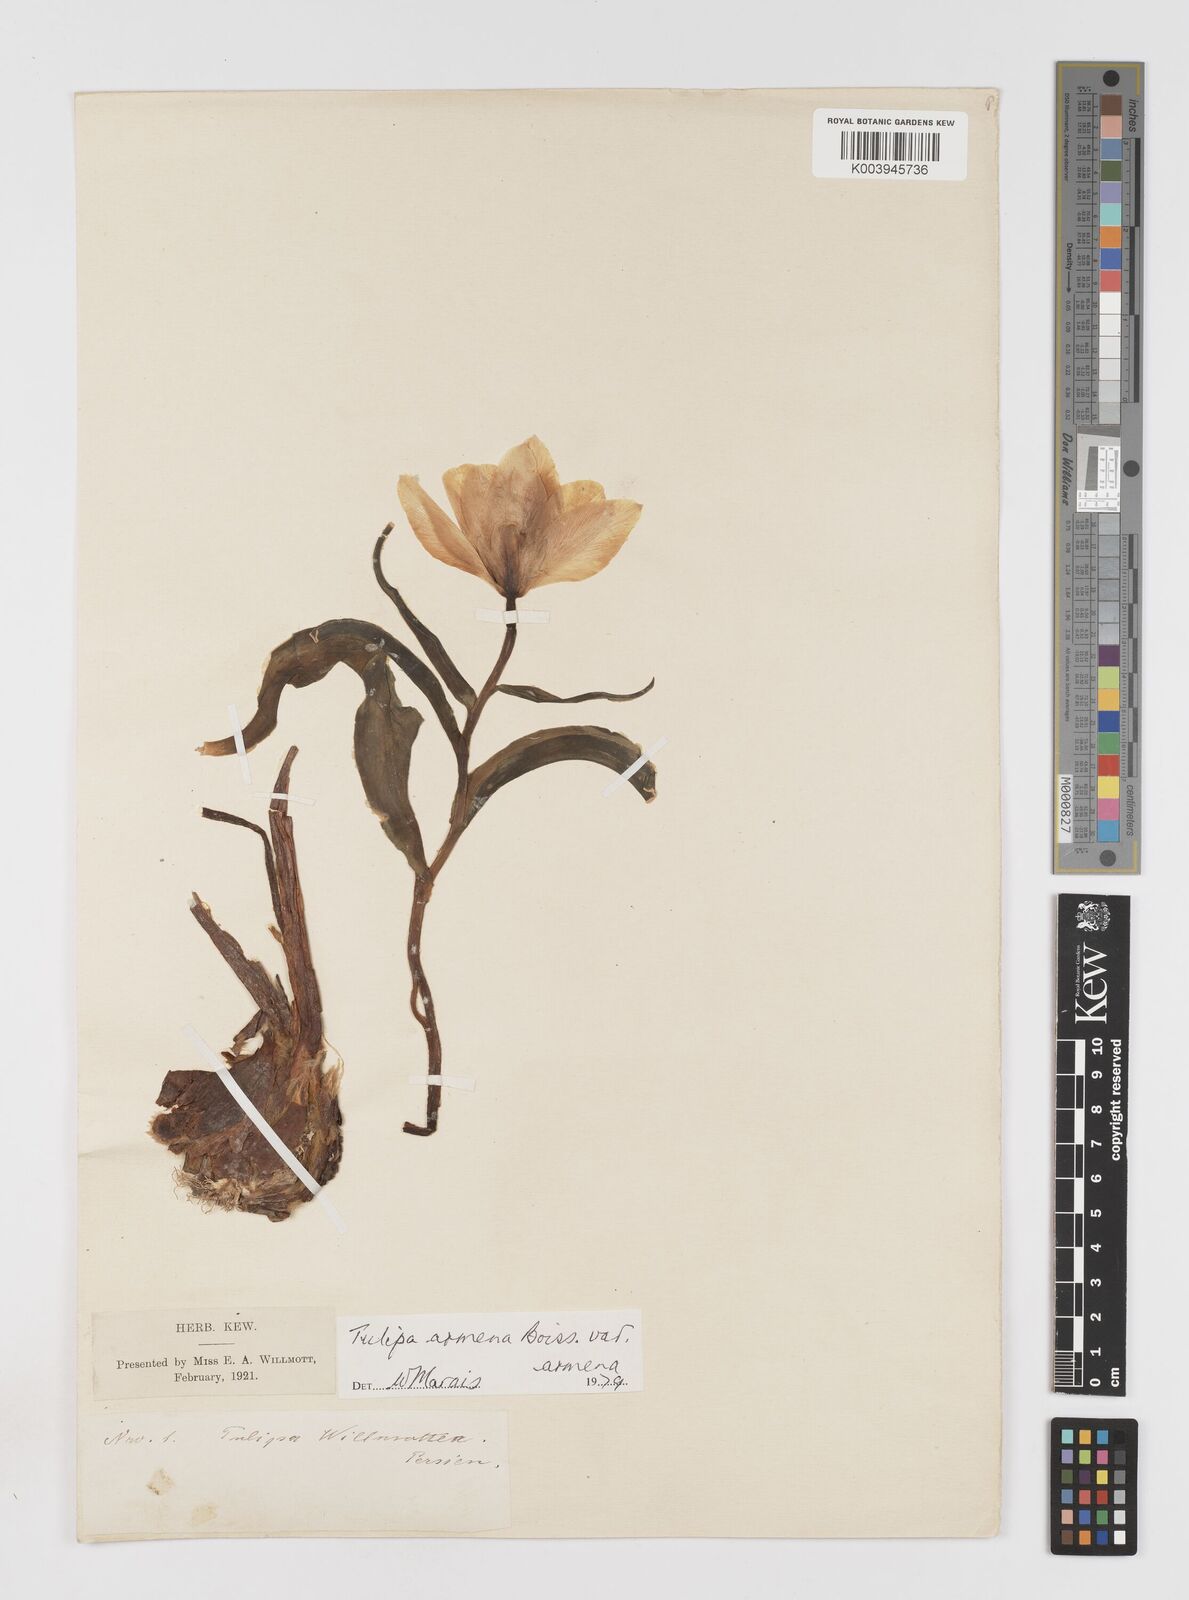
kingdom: Plantae
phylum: Tracheophyta
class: Liliopsida
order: Liliales
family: Liliaceae
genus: Tulipa
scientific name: Tulipa armena
